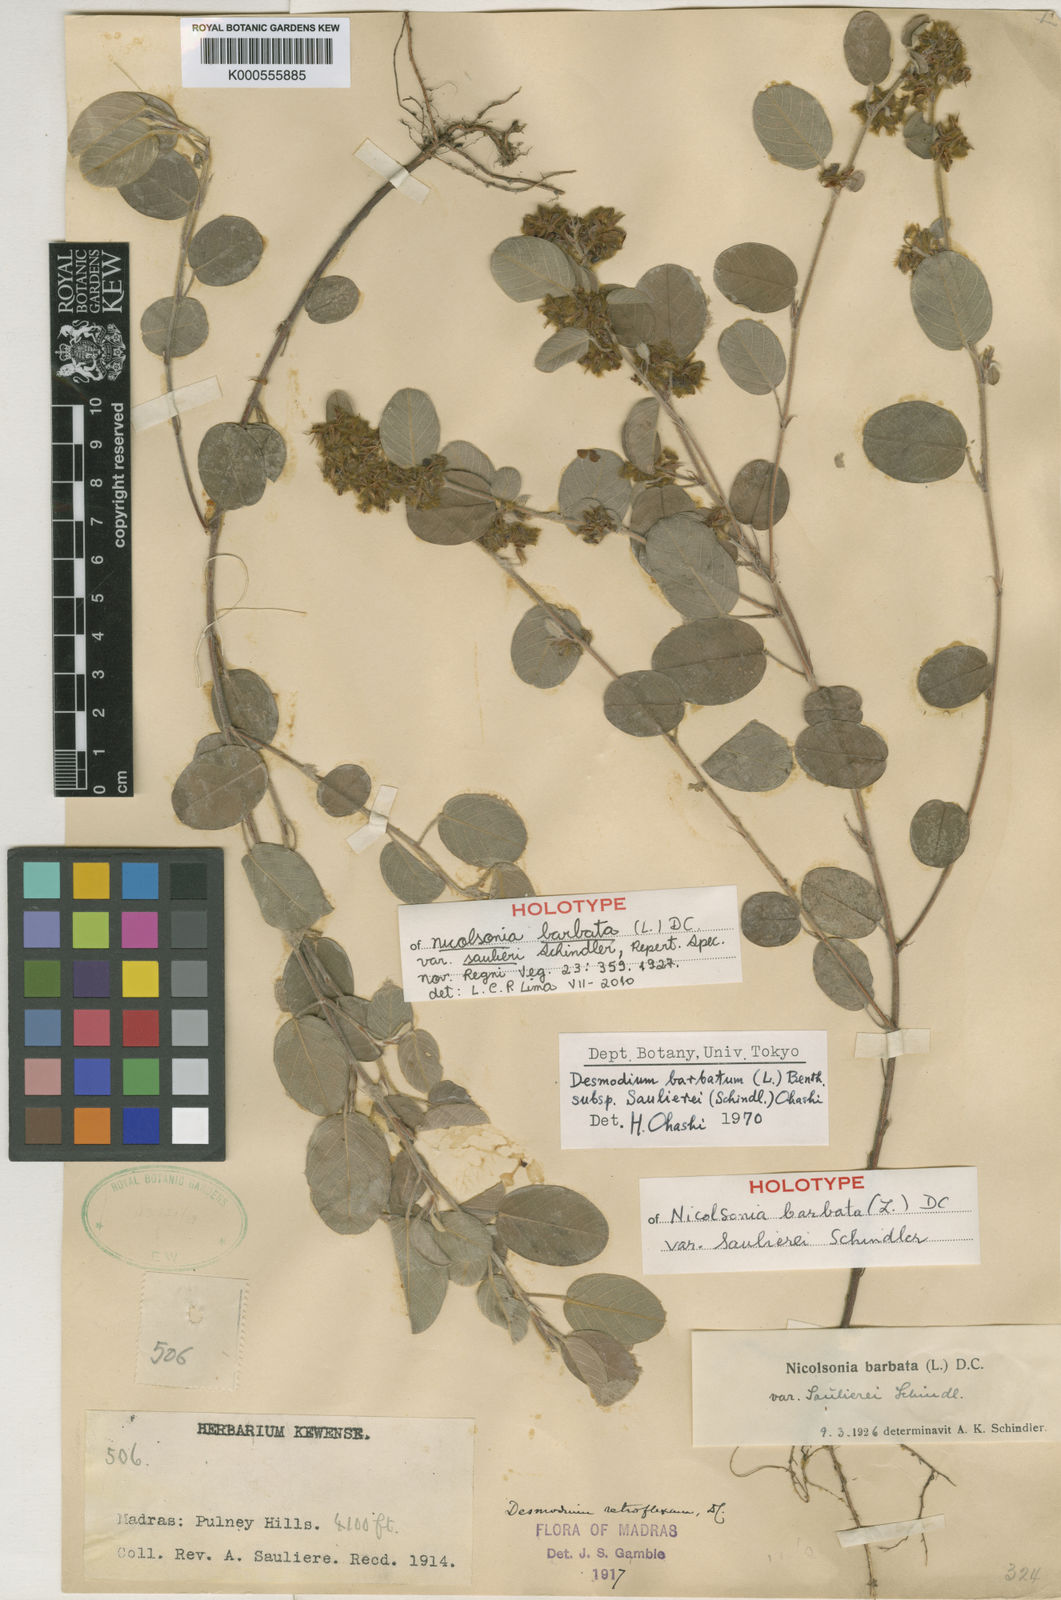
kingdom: Plantae
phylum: Tracheophyta
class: Magnoliopsida
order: Fabales
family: Fabaceae
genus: Grona
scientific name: Grona saulierei
